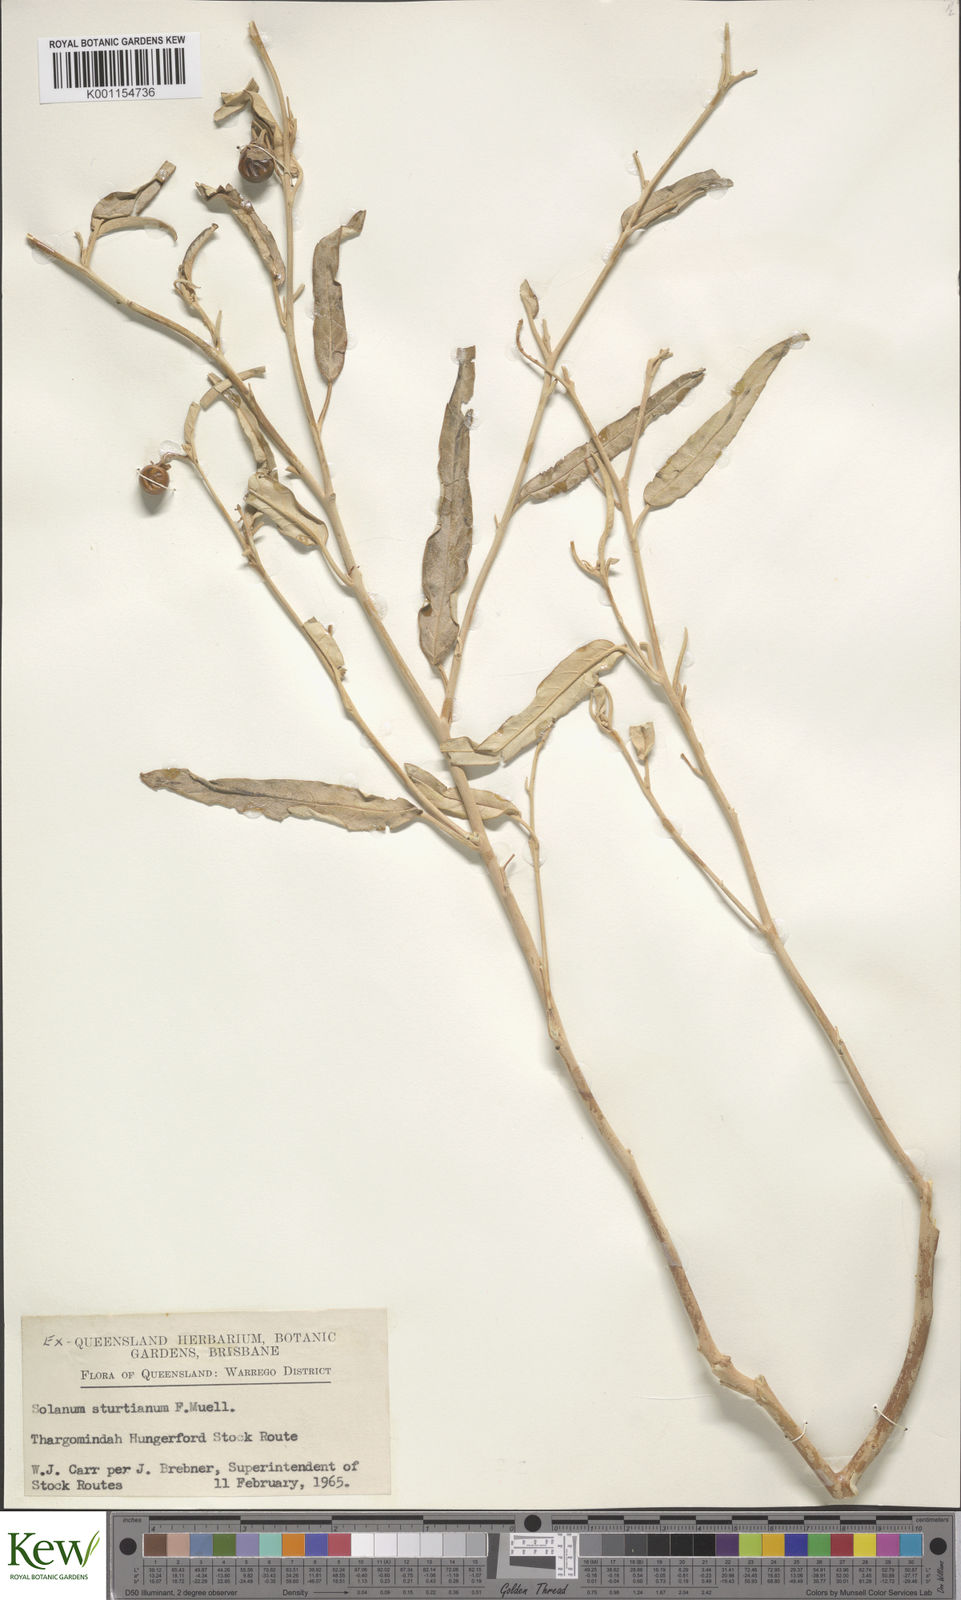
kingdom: Plantae
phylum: Tracheophyta
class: Magnoliopsida
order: Solanales
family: Solanaceae
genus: Solanum
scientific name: Solanum sturtianum
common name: Thargomindah nightshade
